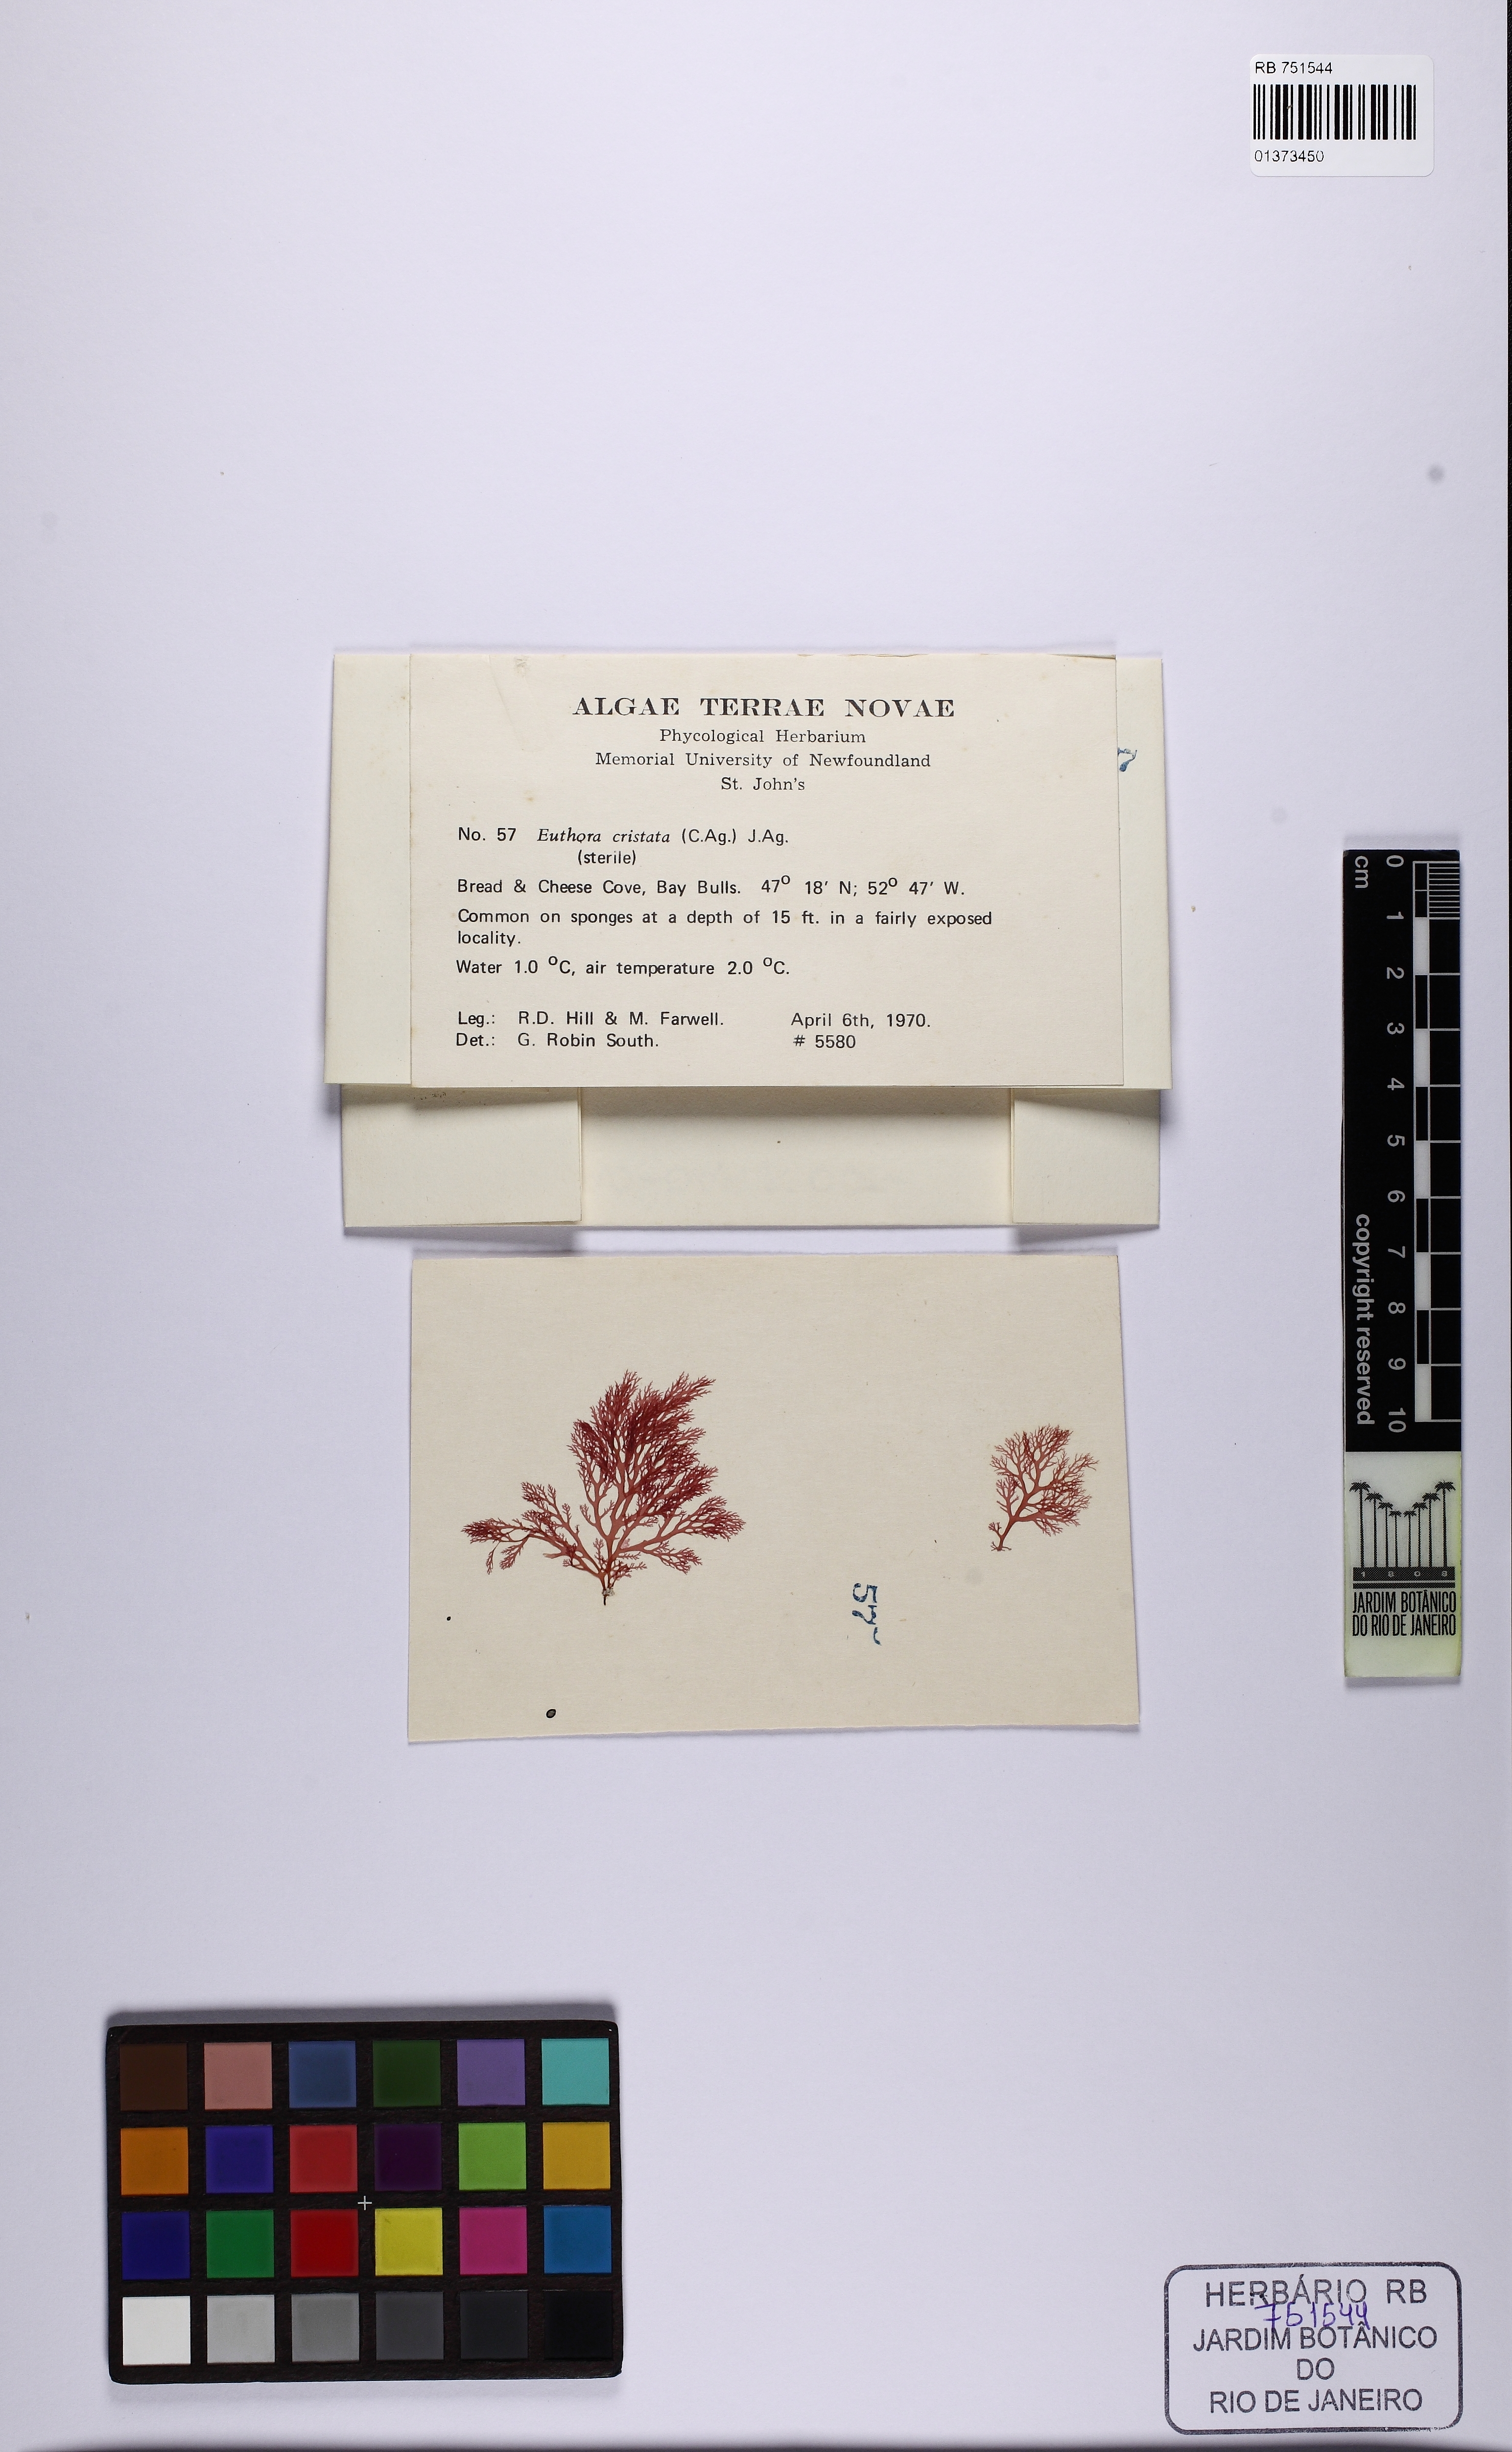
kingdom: Plantae
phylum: Rhodophyta
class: Florideophyceae
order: Gigartinales
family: Kallymeniaceae
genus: Euthora
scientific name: Euthora cristata
